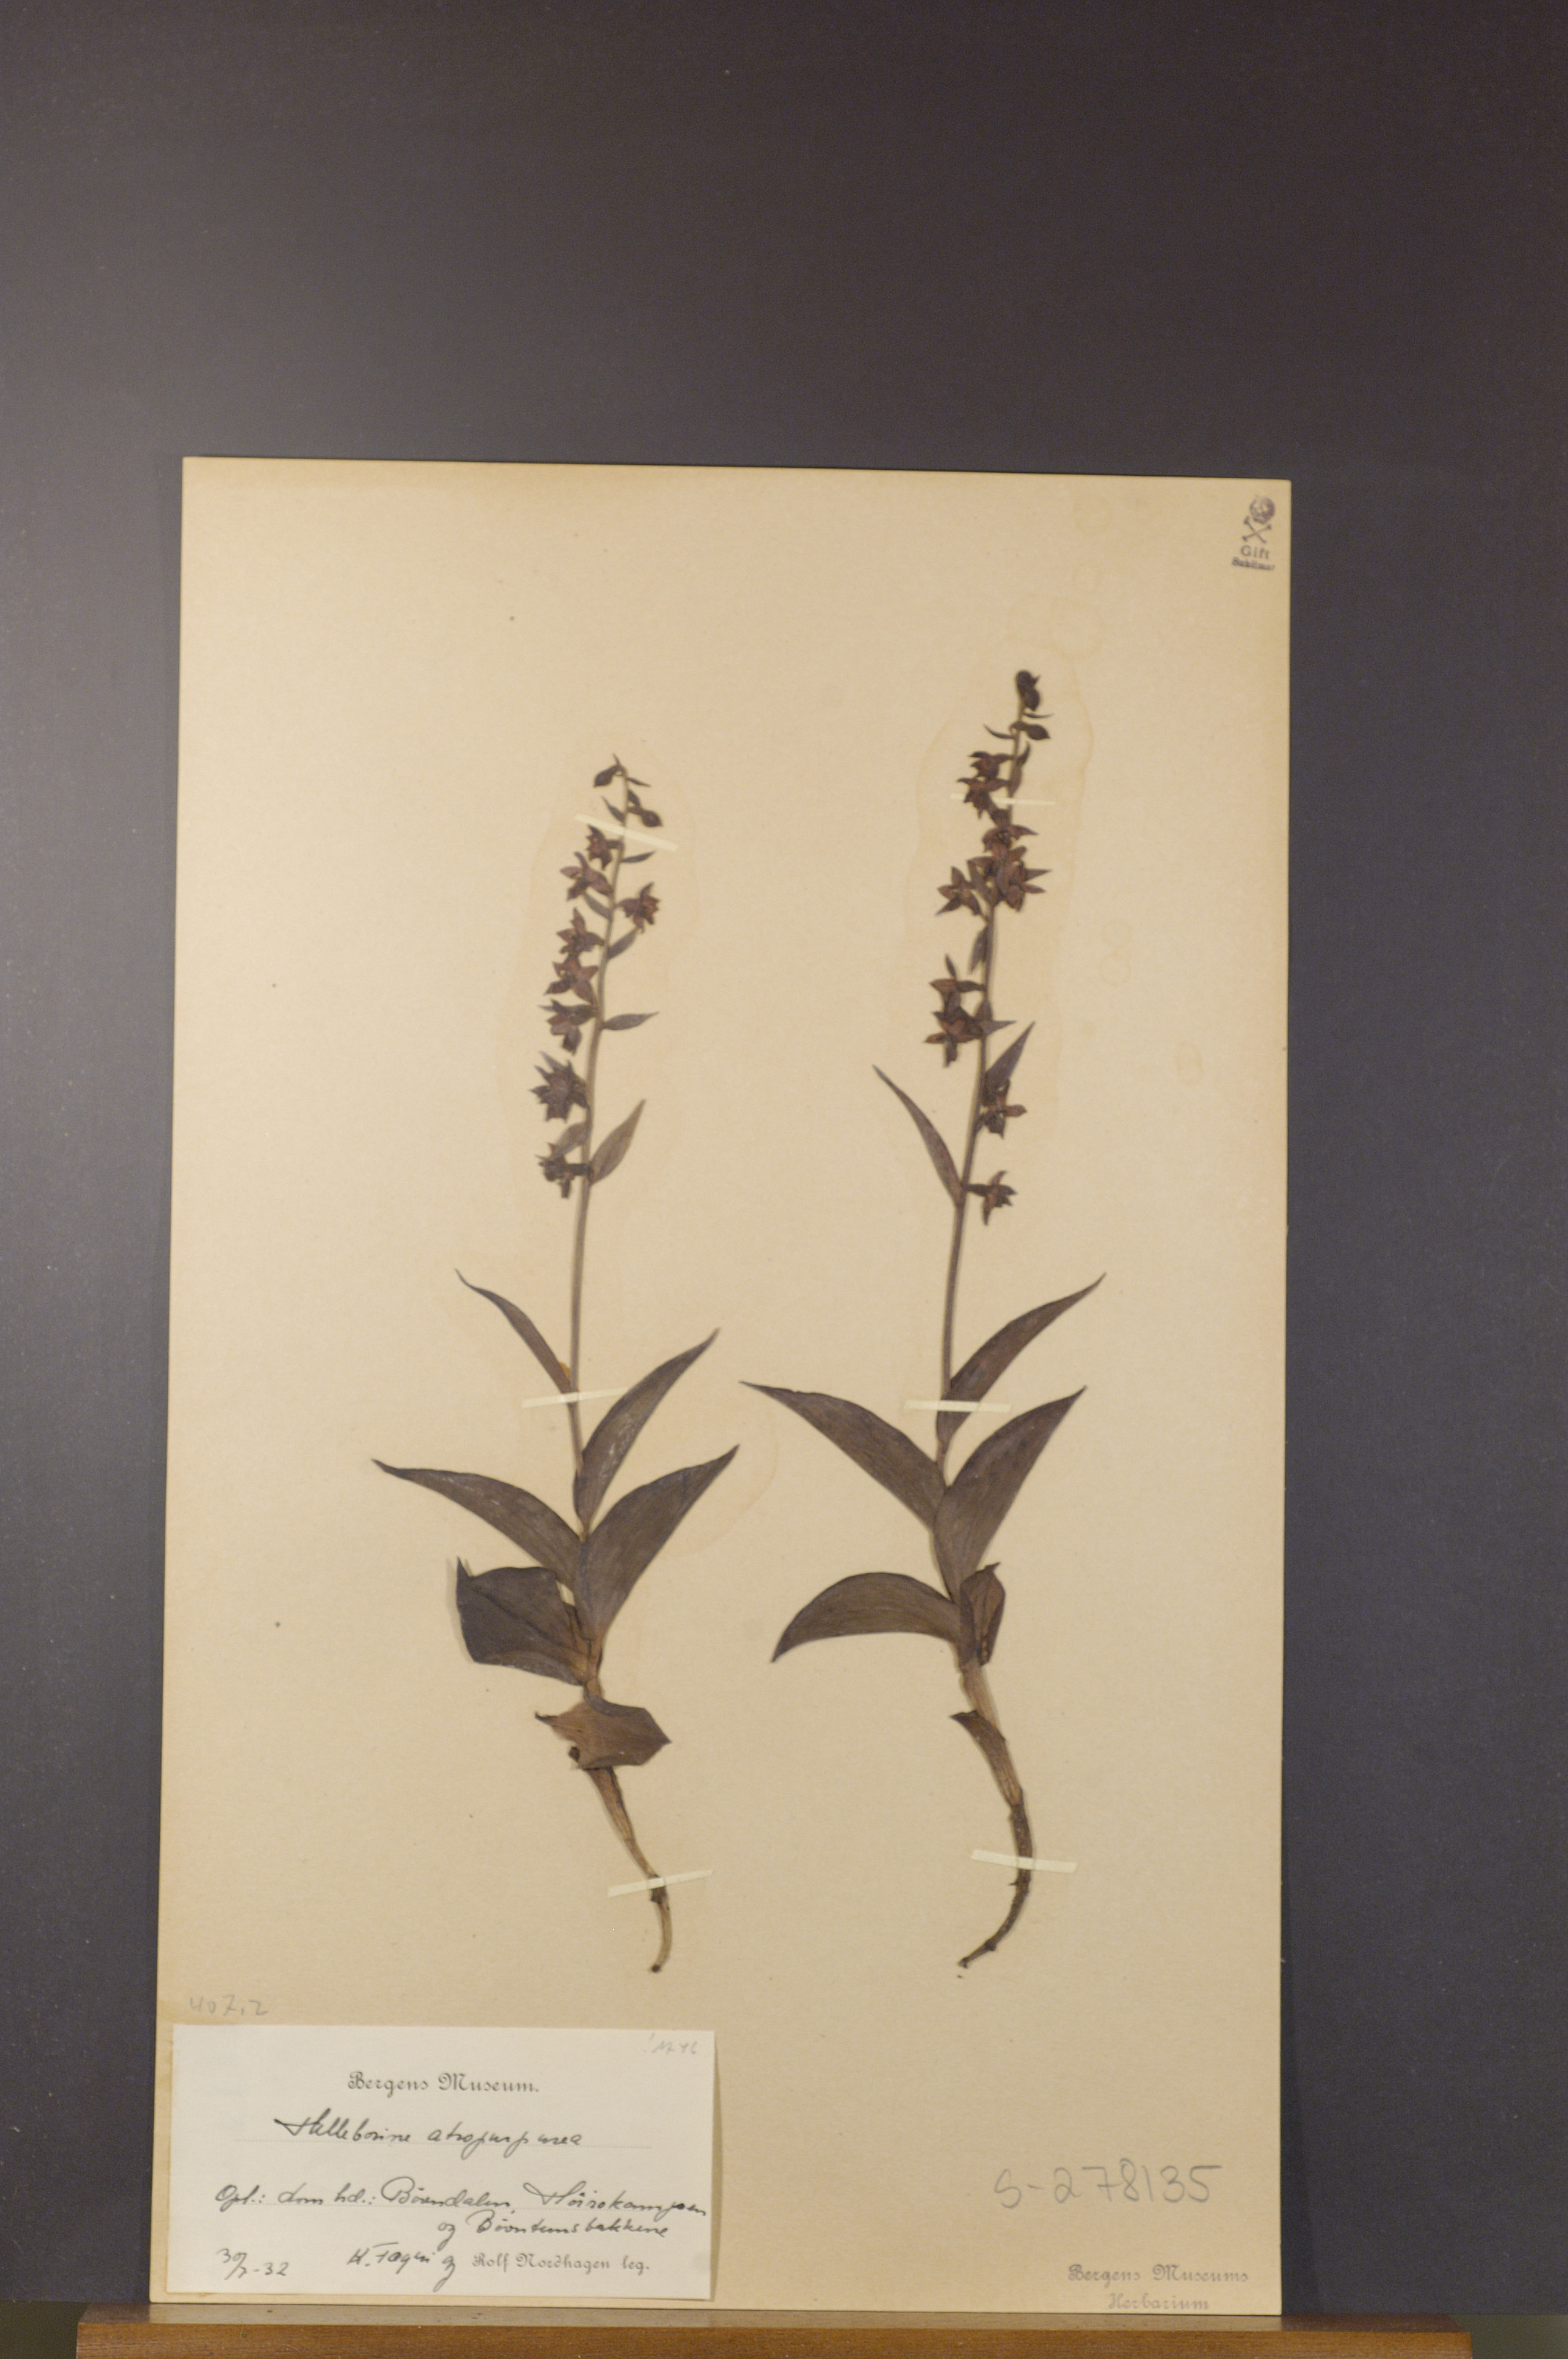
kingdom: Plantae
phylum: Tracheophyta
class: Liliopsida
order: Asparagales
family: Orchidaceae
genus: Epipactis
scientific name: Epipactis atrorubens
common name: Dark-red helleborine
